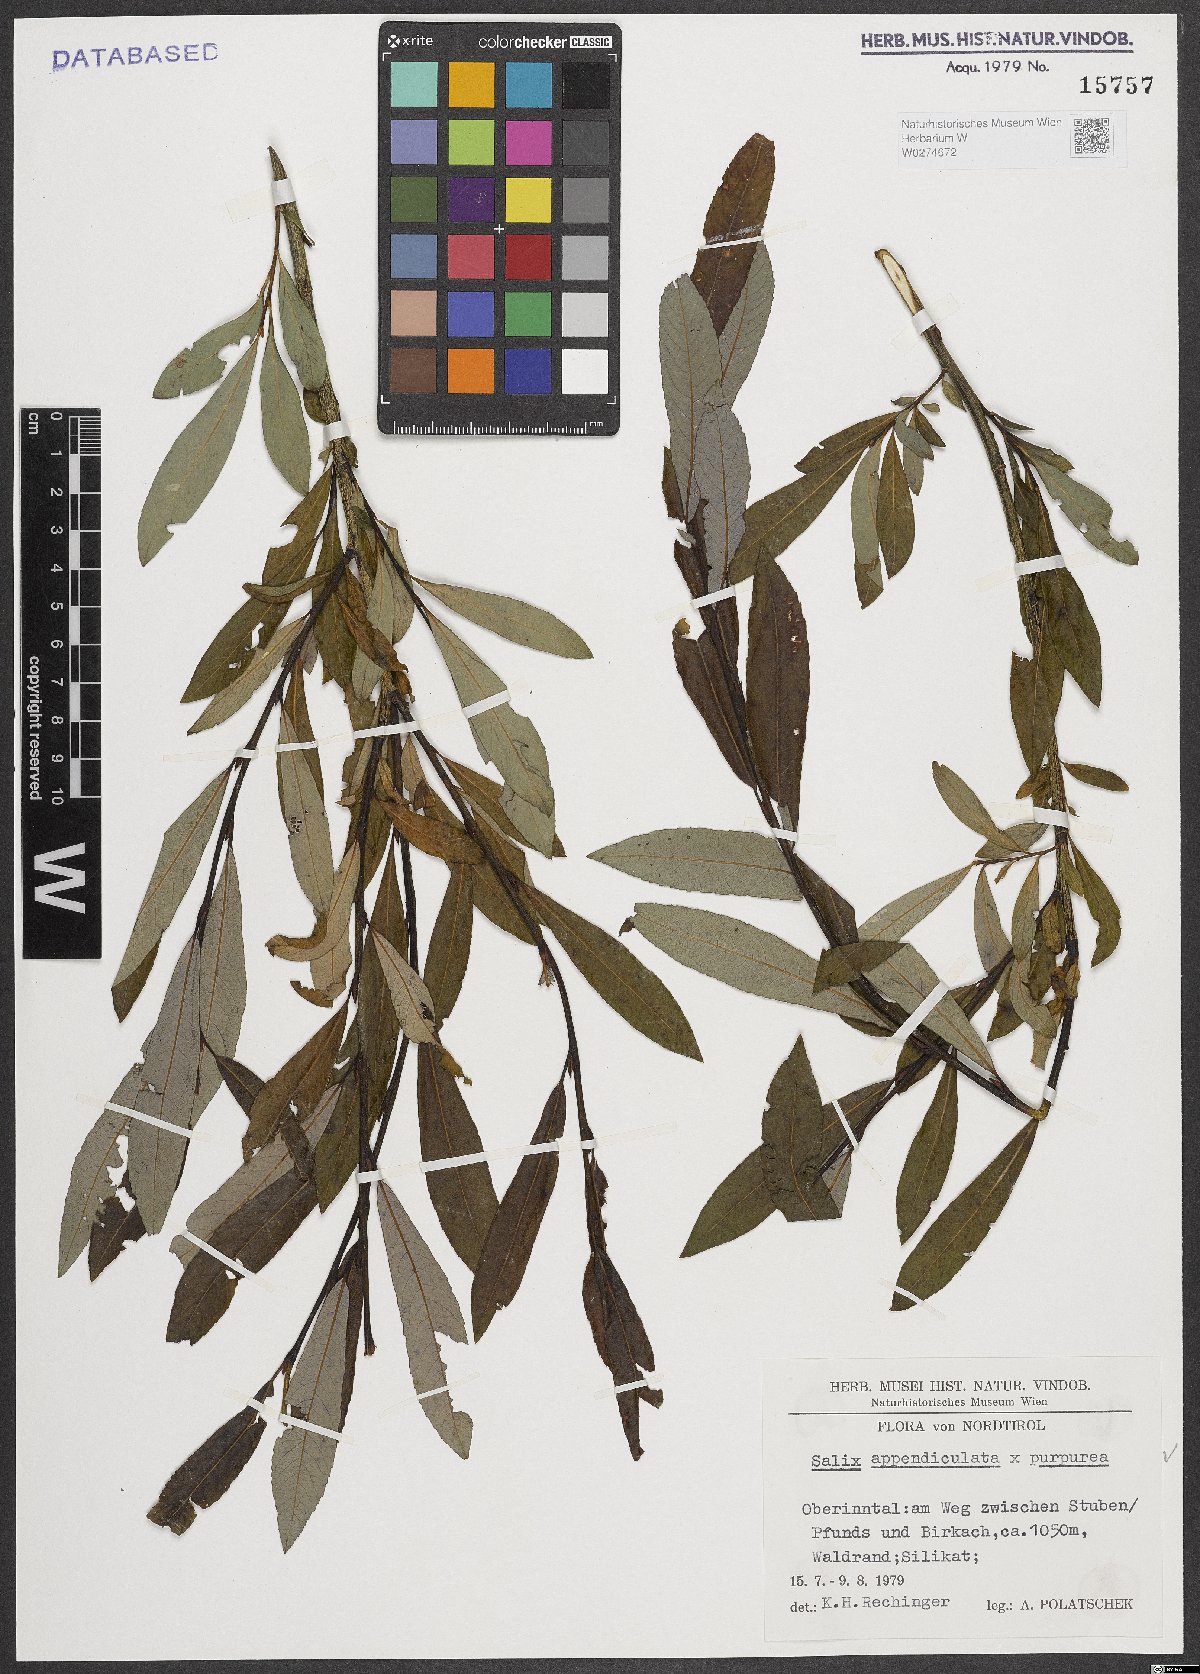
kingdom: Plantae
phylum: Tracheophyta
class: Magnoliopsida
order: Malpighiales
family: Salicaceae
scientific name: Salicaceae
